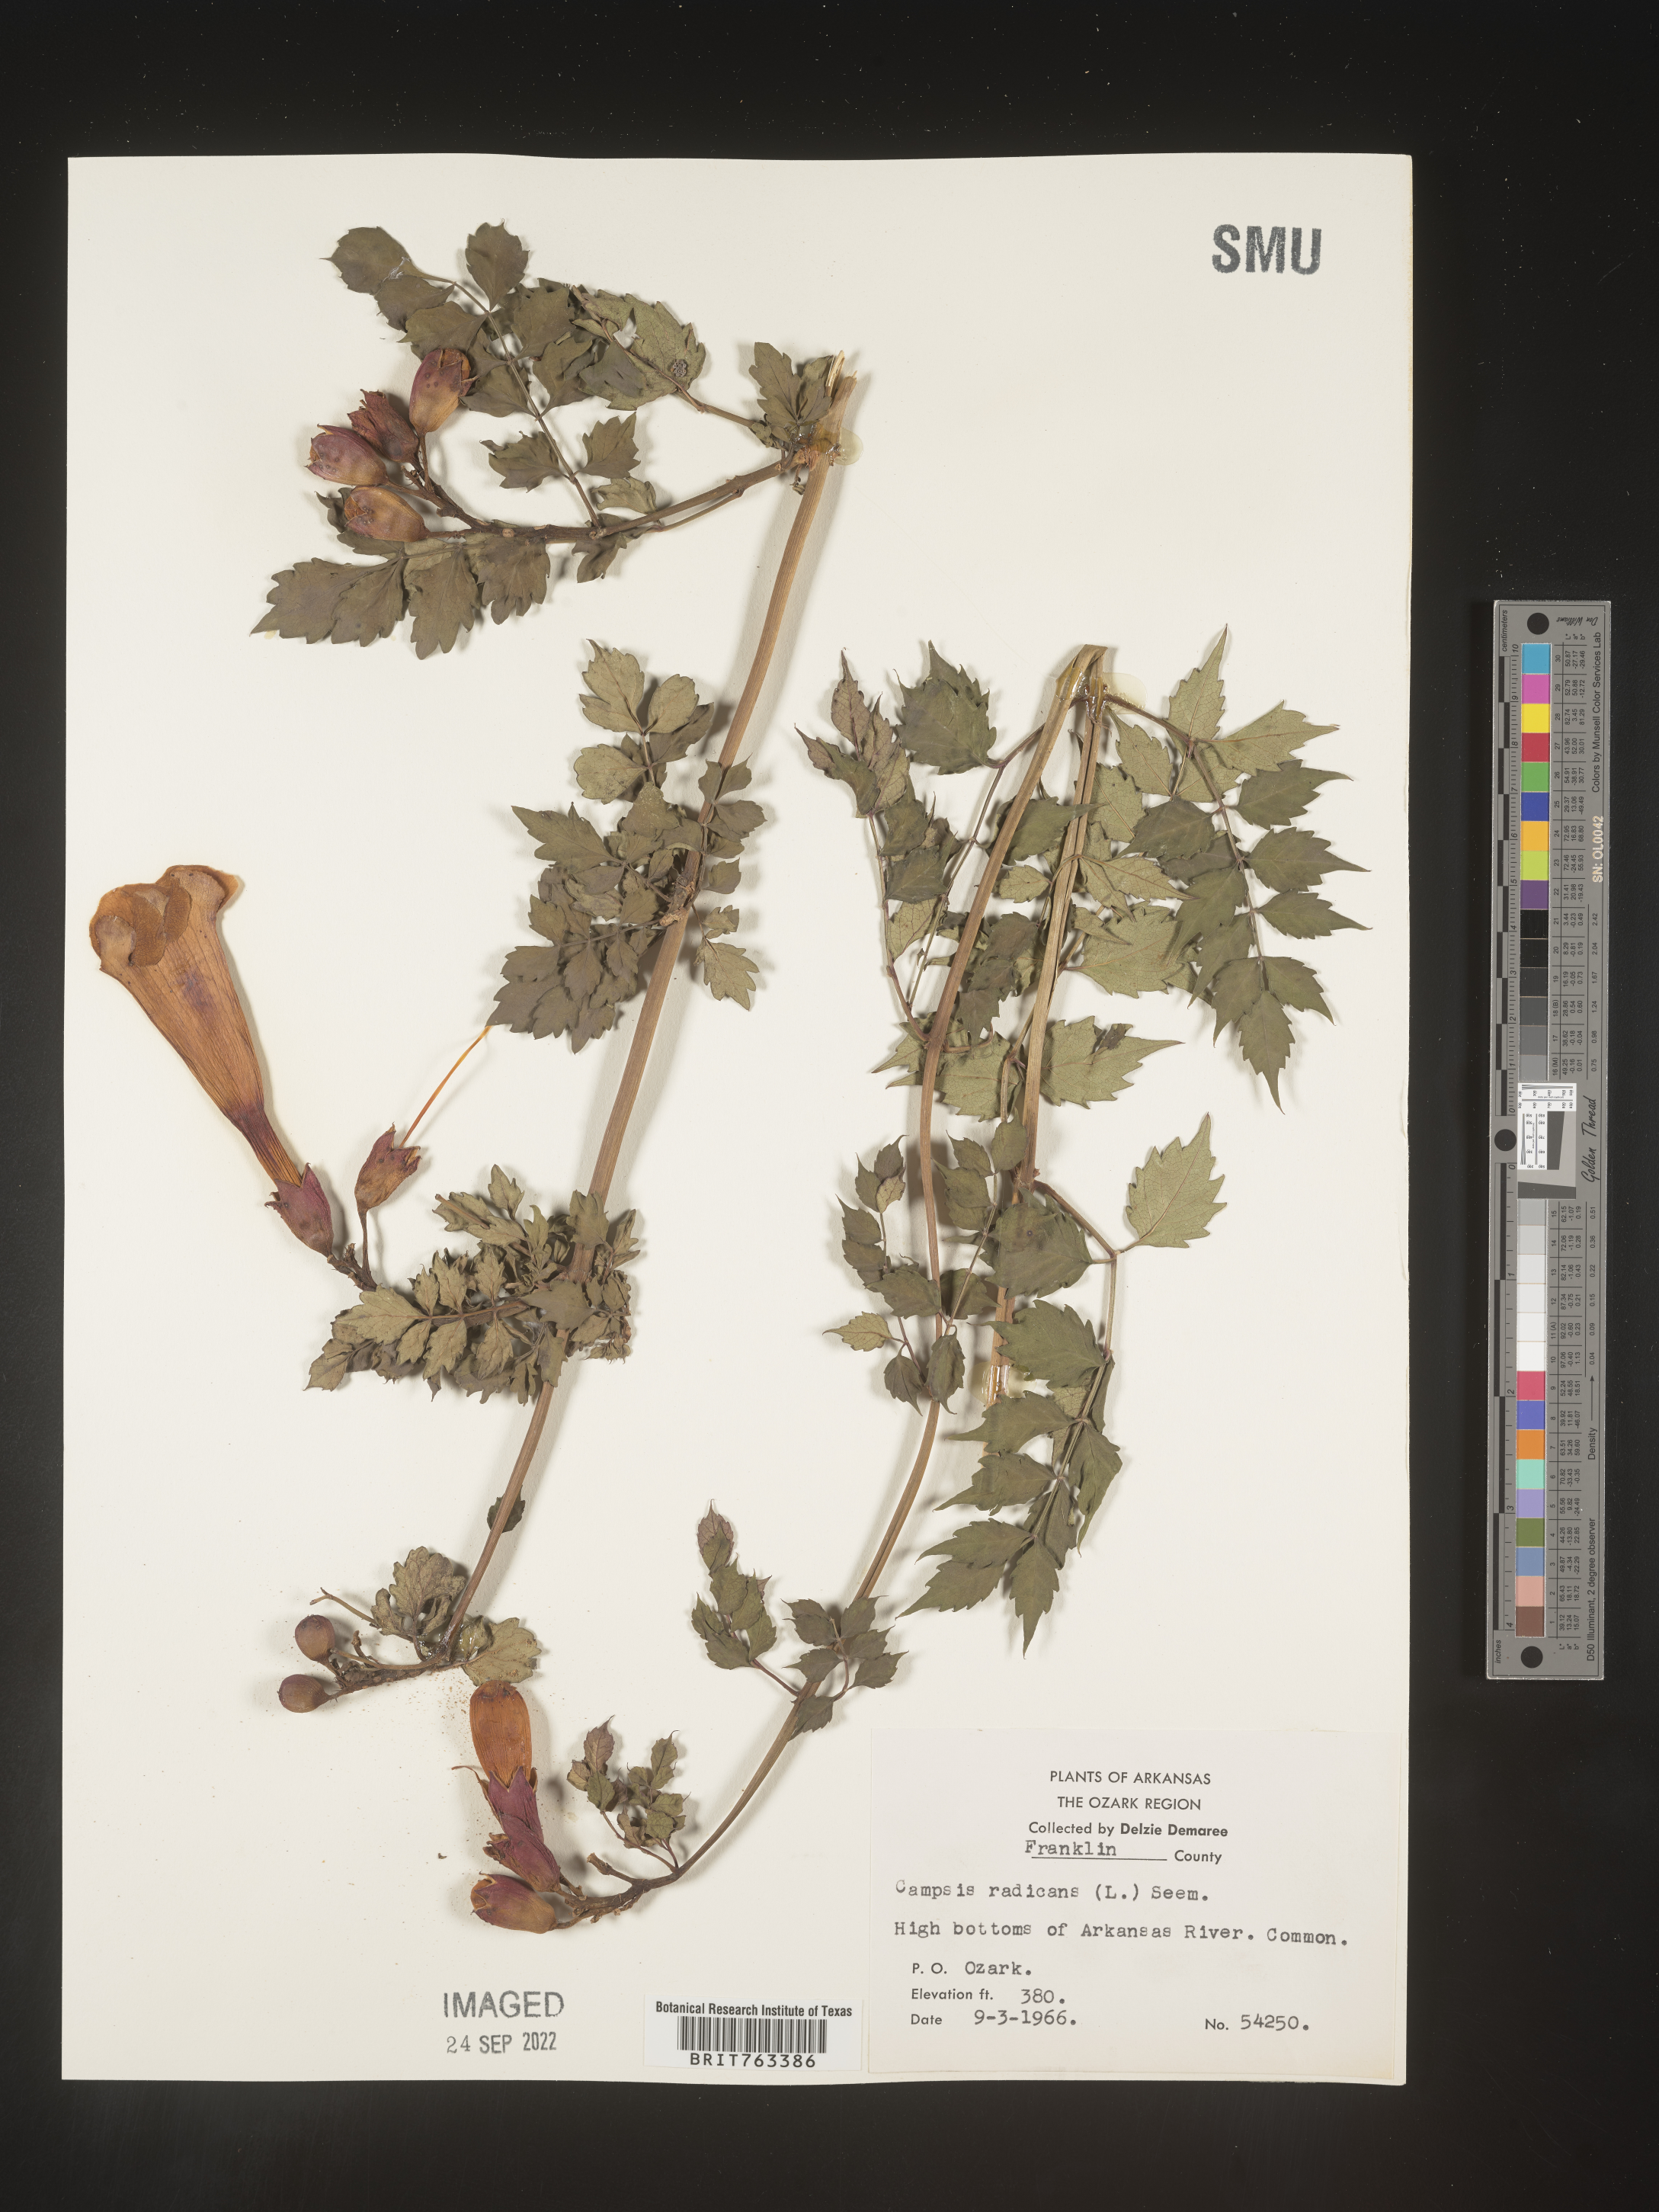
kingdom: Plantae
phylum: Tracheophyta
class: Magnoliopsida
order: Lamiales
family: Bignoniaceae
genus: Campsis
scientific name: Campsis radicans
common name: Trumpet-creeper
